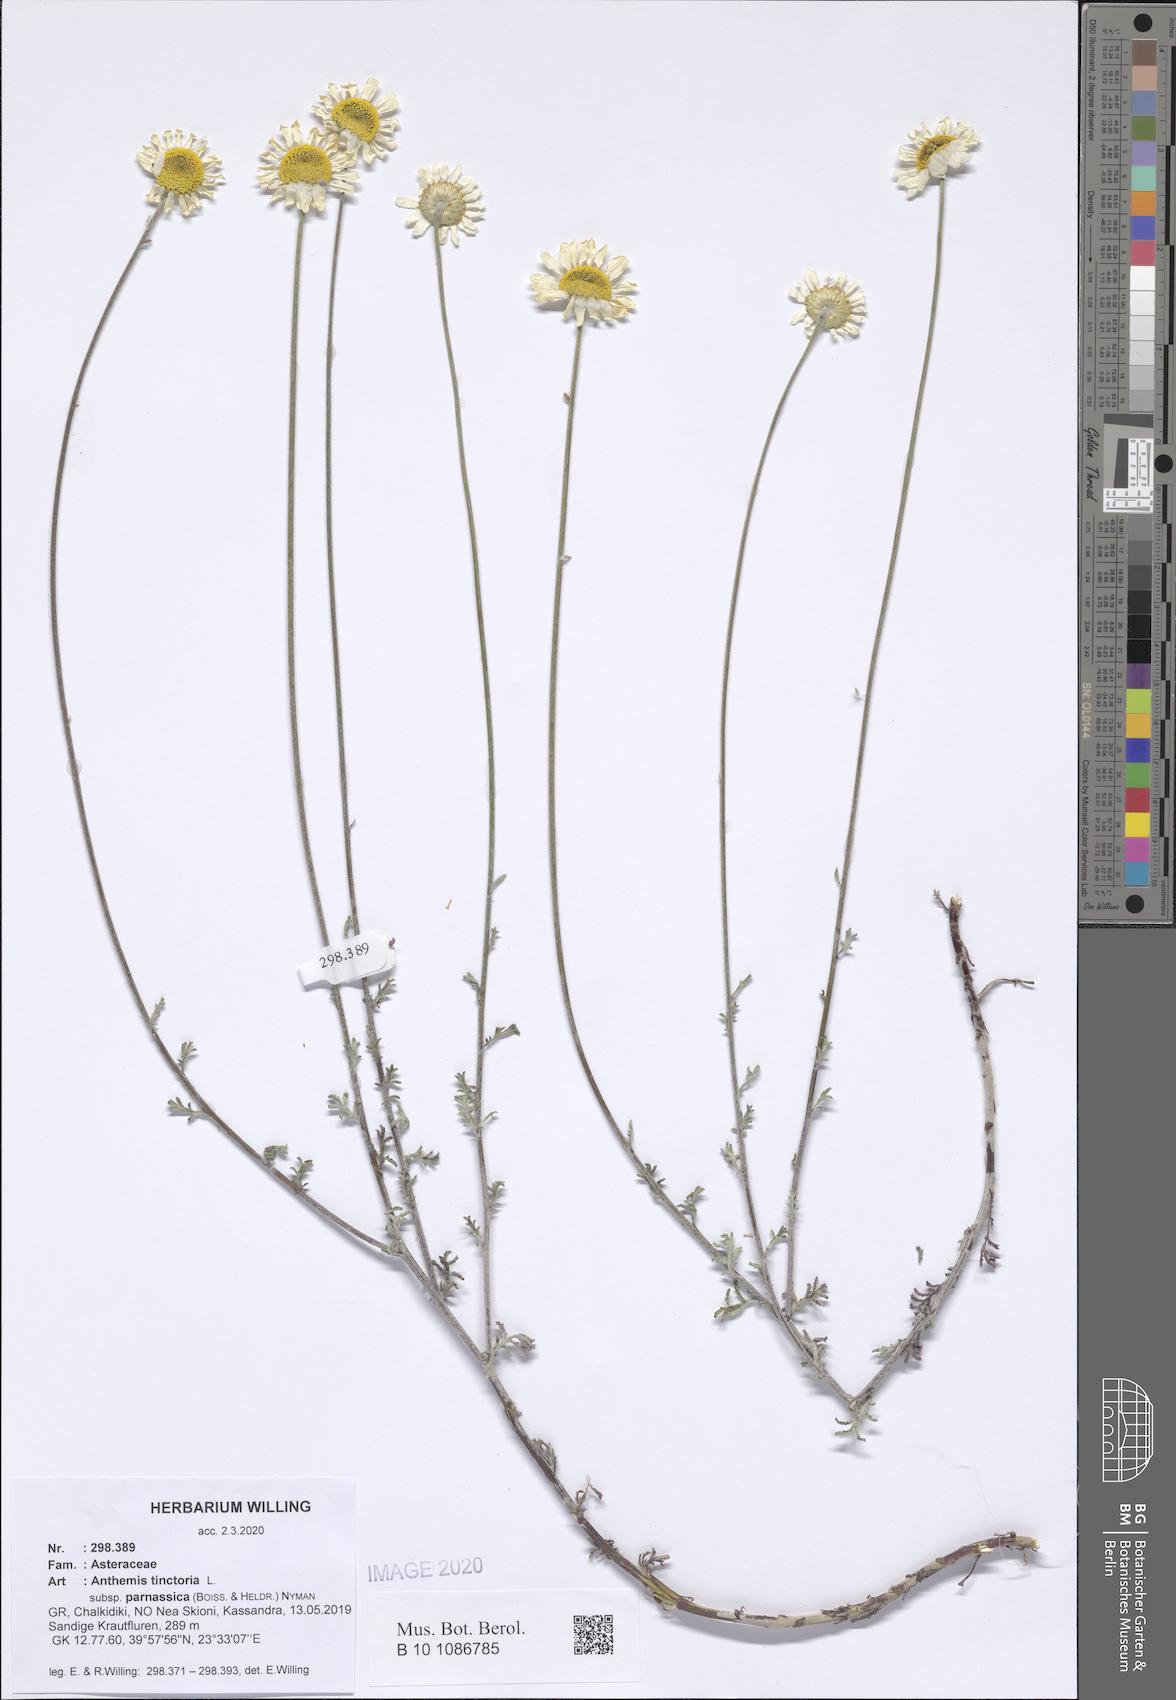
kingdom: Plantae
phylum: Tracheophyta
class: Magnoliopsida
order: Asterales
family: Asteraceae
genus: Cota
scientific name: Cota tinctoria
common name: Golden chamomile
